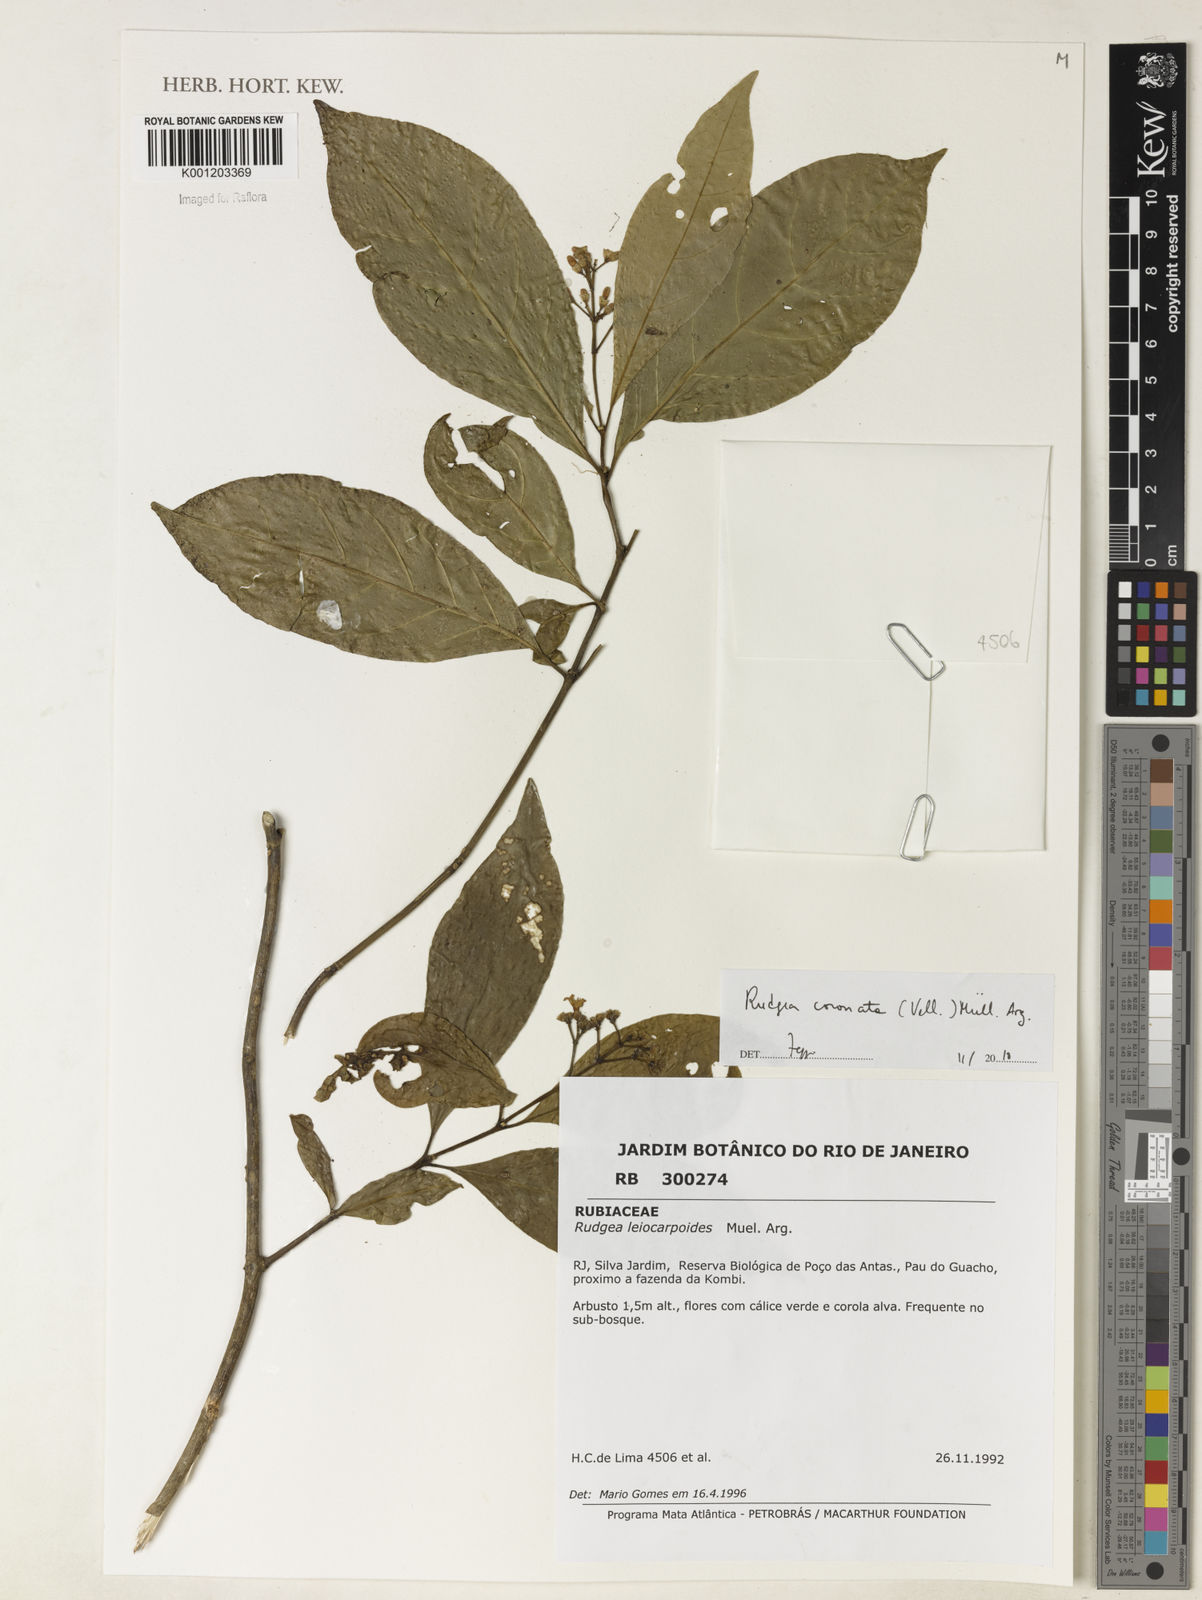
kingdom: Plantae
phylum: Tracheophyta
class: Magnoliopsida
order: Gentianales
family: Rubiaceae
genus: Rudgea
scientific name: Rudgea
